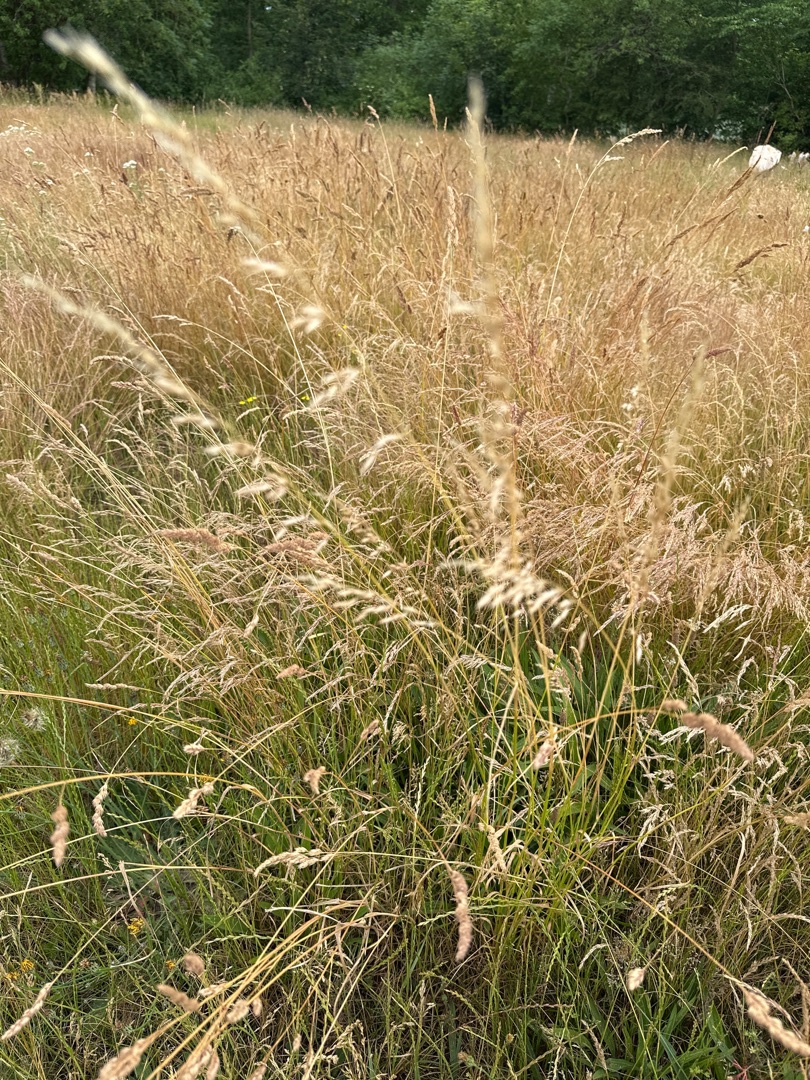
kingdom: Plantae
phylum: Tracheophyta
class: Liliopsida
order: Poales
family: Poaceae
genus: Arrhenatherum
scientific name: Arrhenatherum elatius
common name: Draphavre
